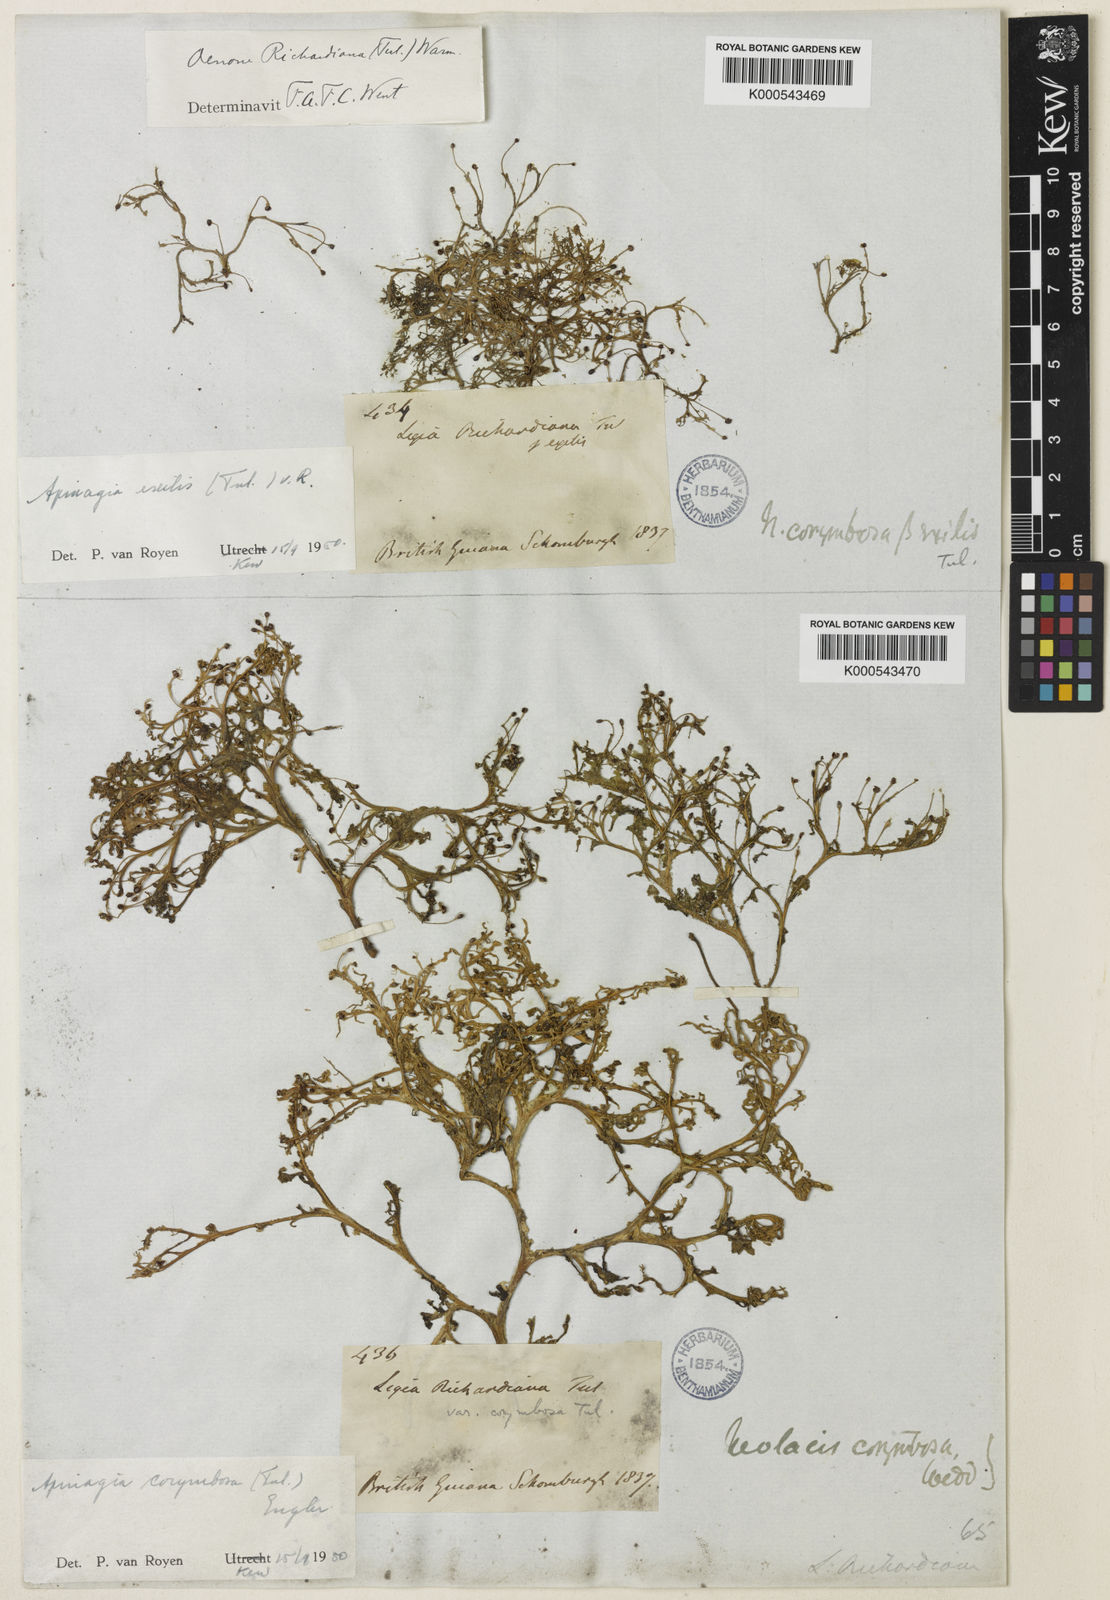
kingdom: Plantae
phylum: Tracheophyta
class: Magnoliopsida
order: Malpighiales
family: Podostemaceae
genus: Apinagia
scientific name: Apinagia exilis
